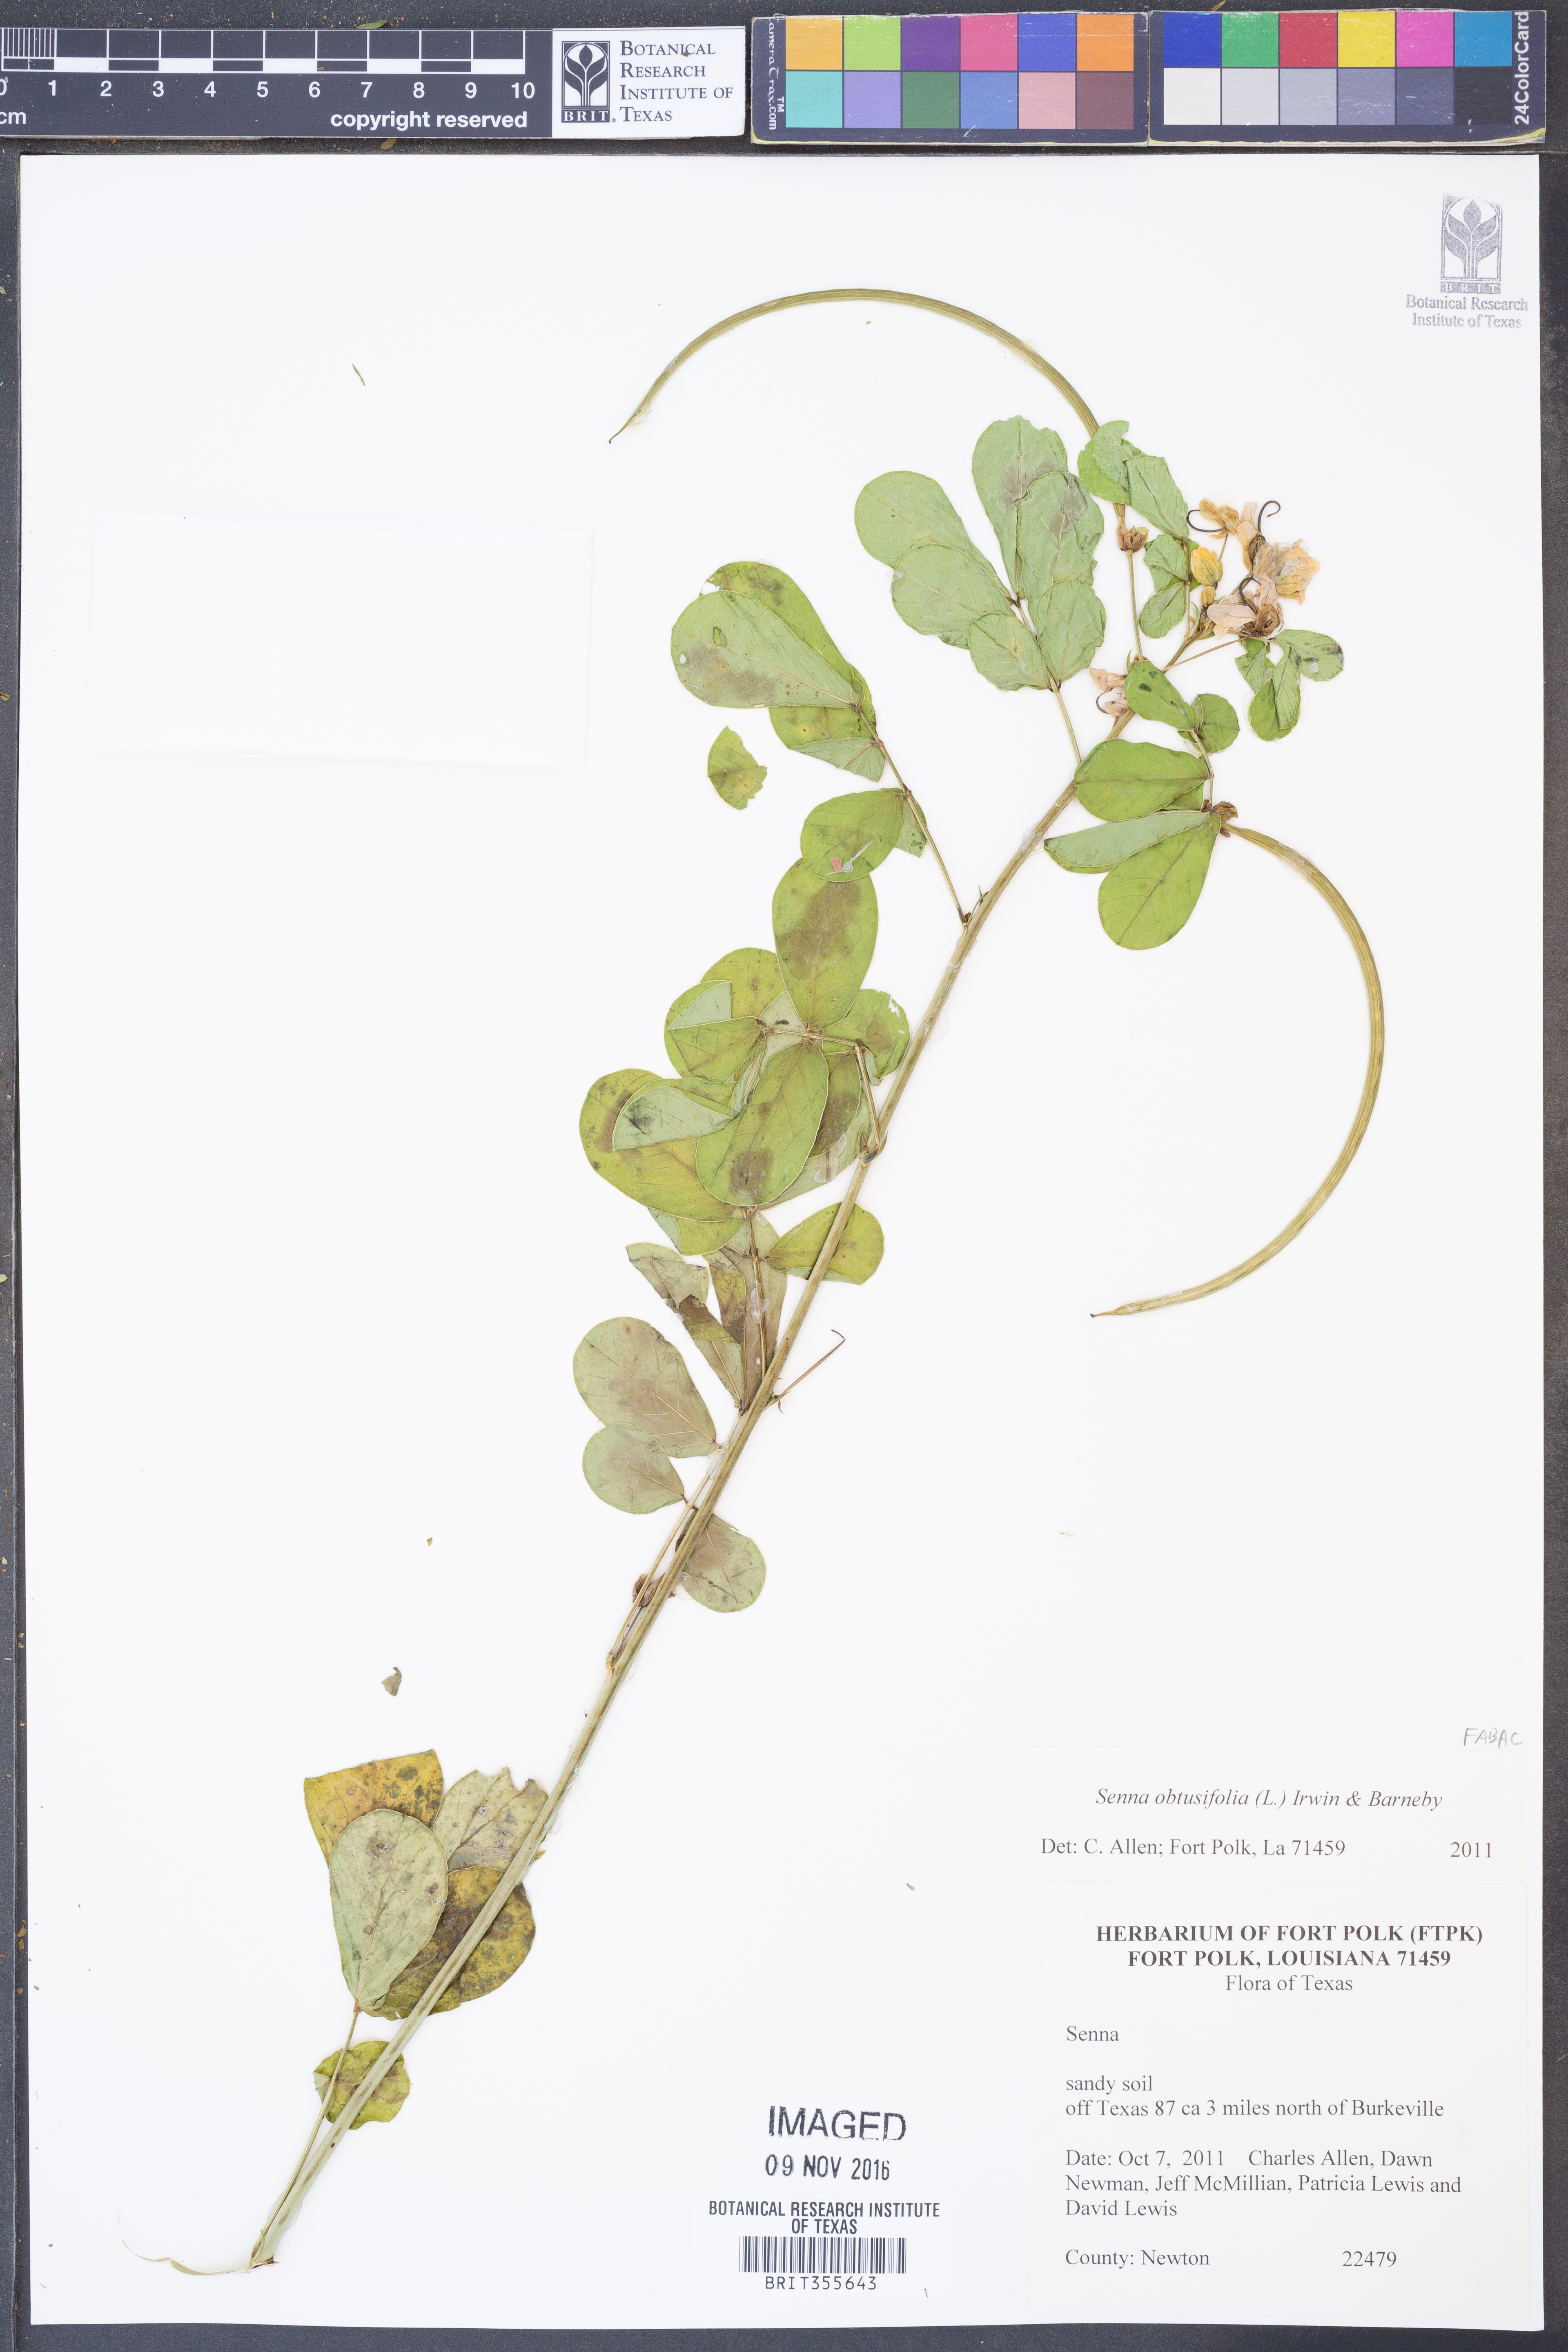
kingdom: Plantae
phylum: Tracheophyta
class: Magnoliopsida
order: Fabales
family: Fabaceae
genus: Senna
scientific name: Senna obtusifolia
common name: Java-bean
